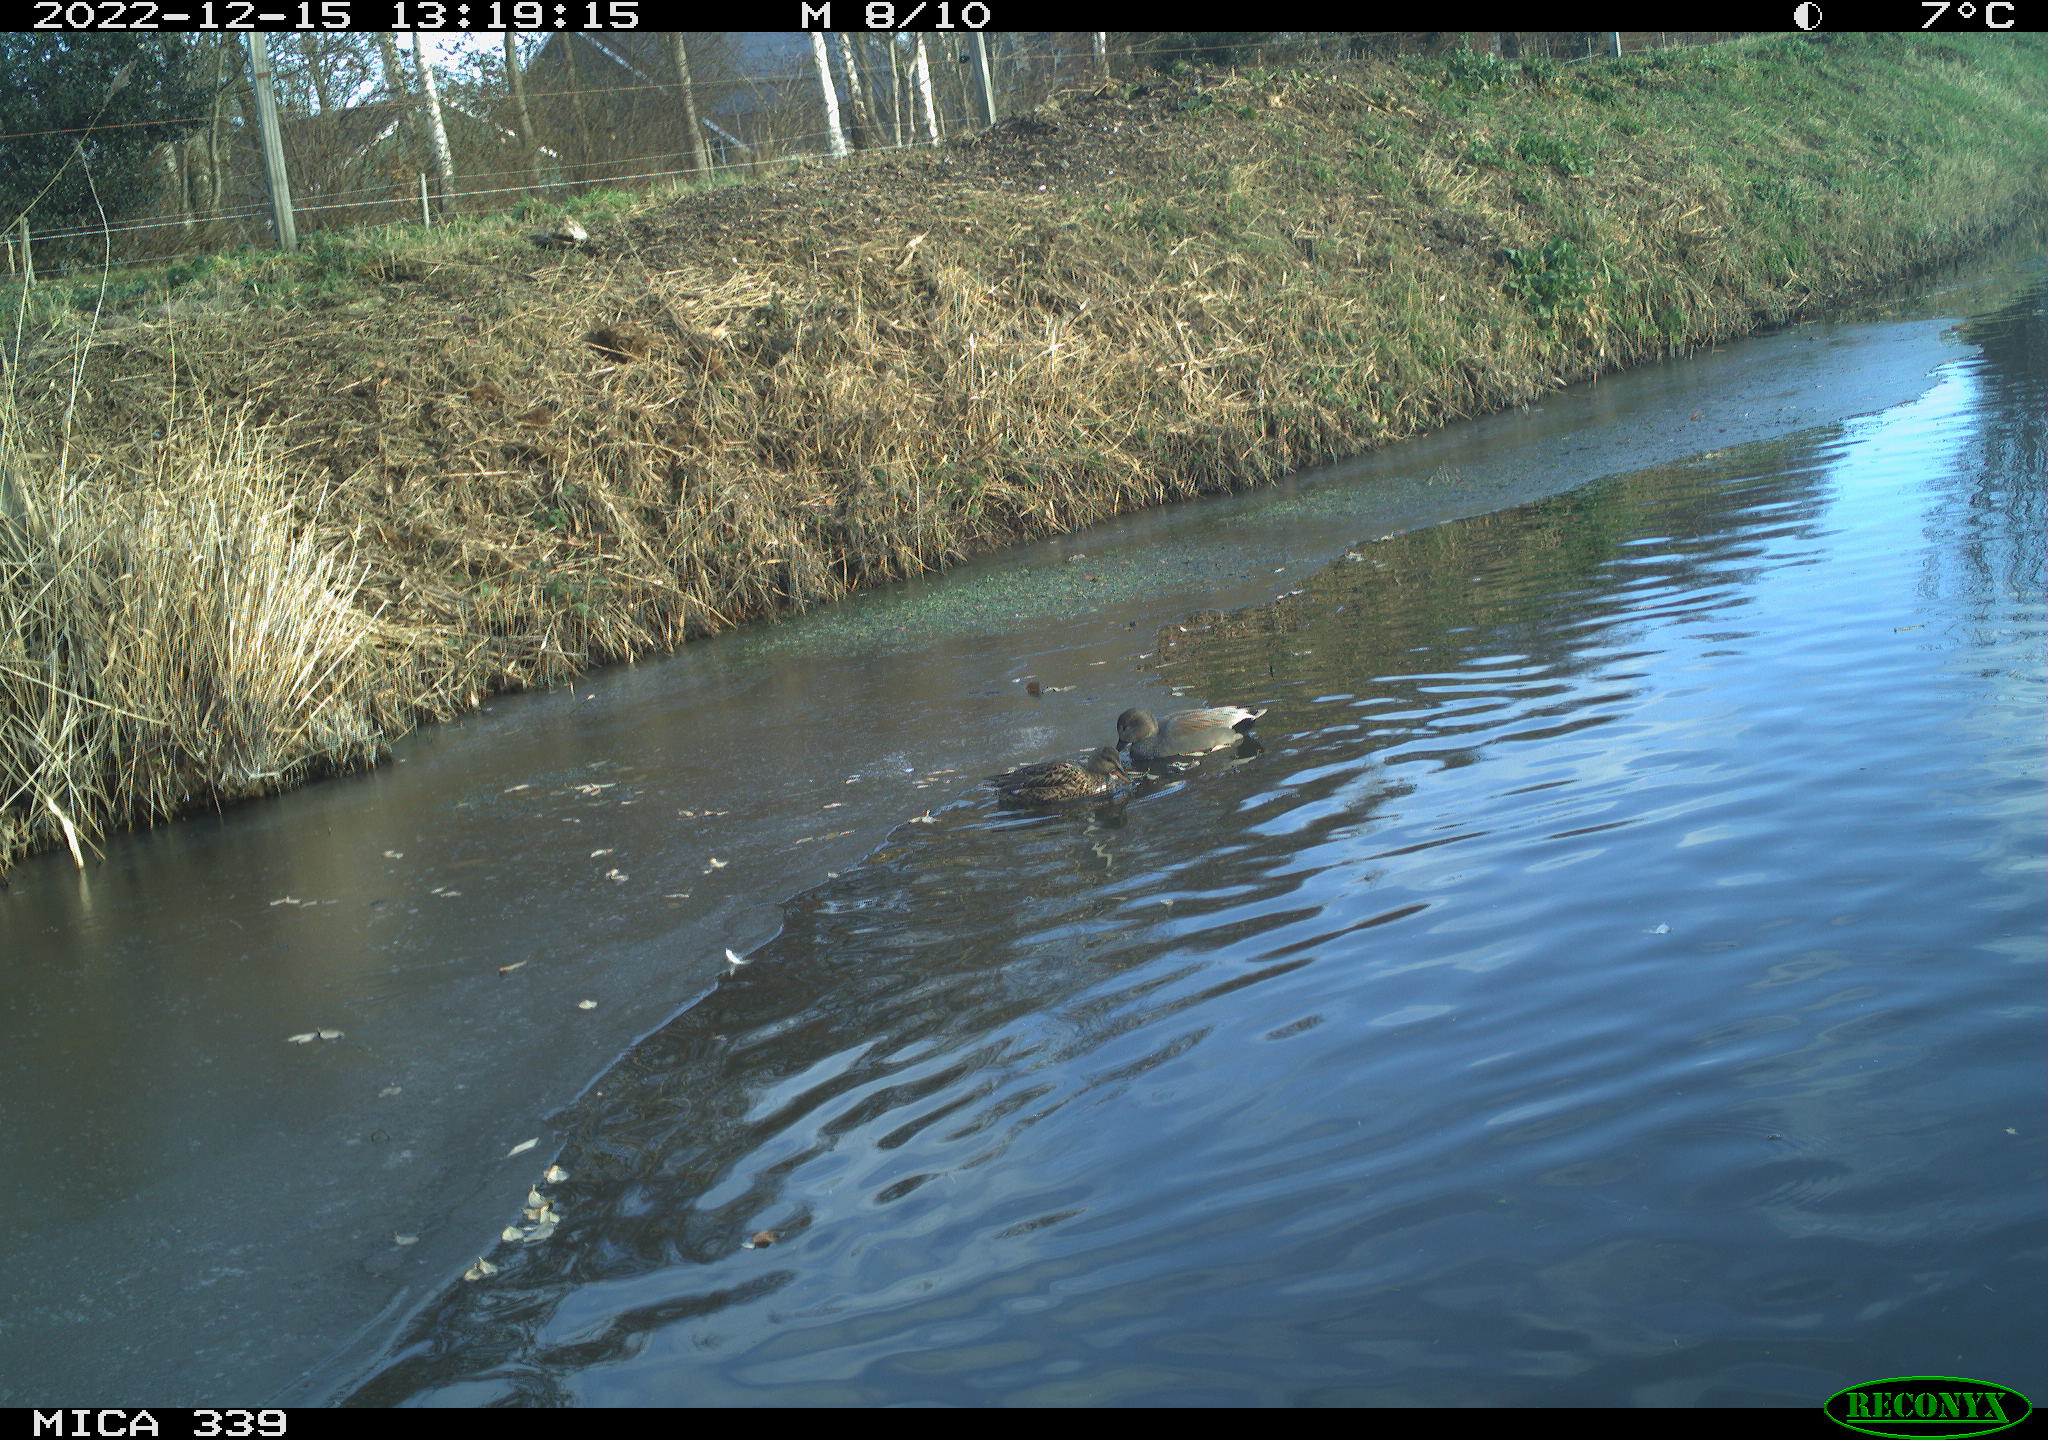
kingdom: Animalia
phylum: Chordata
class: Aves
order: Anseriformes
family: Anatidae
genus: Anas
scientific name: Anas
